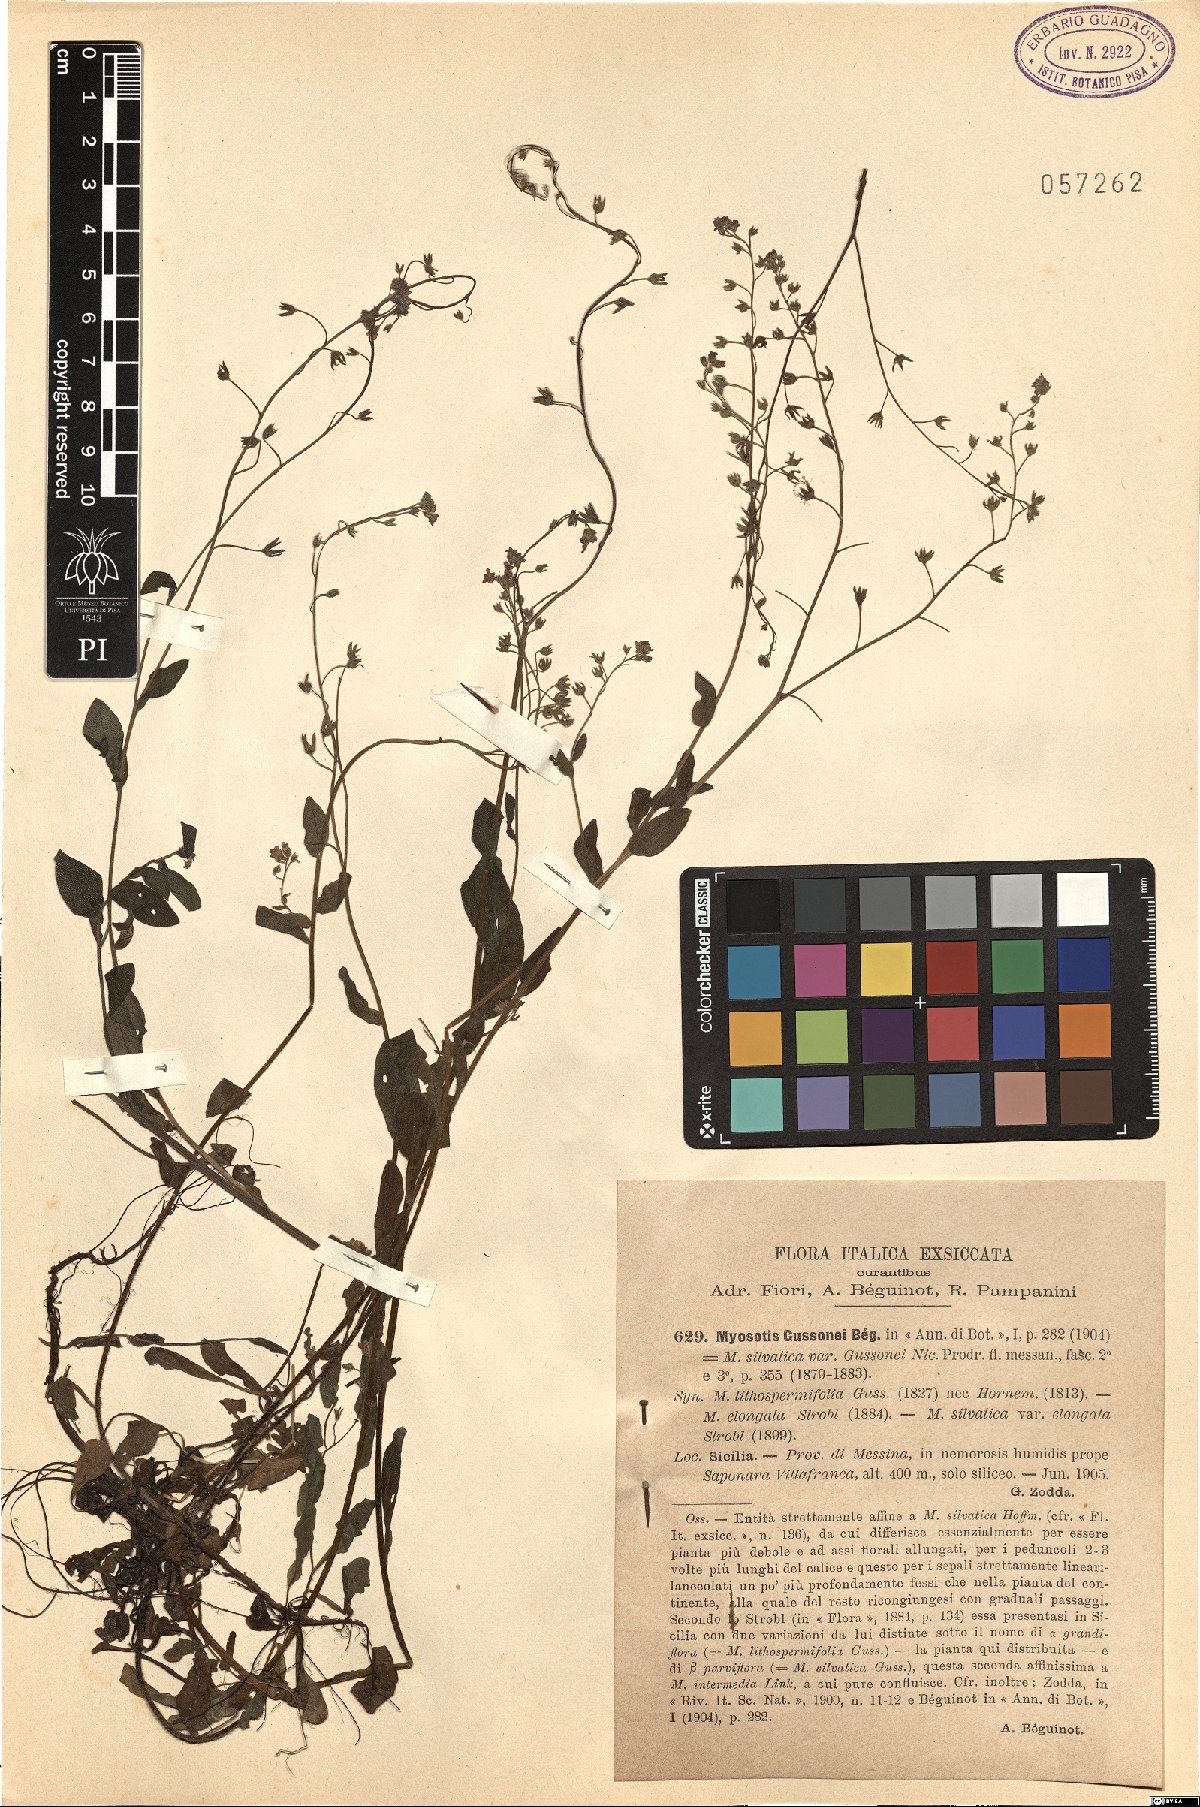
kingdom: Plantae
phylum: Tracheophyta
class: Magnoliopsida
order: Boraginales
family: Boraginaceae
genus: Myosotis
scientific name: Myosotis sicula
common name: Jersey forget-me-not
